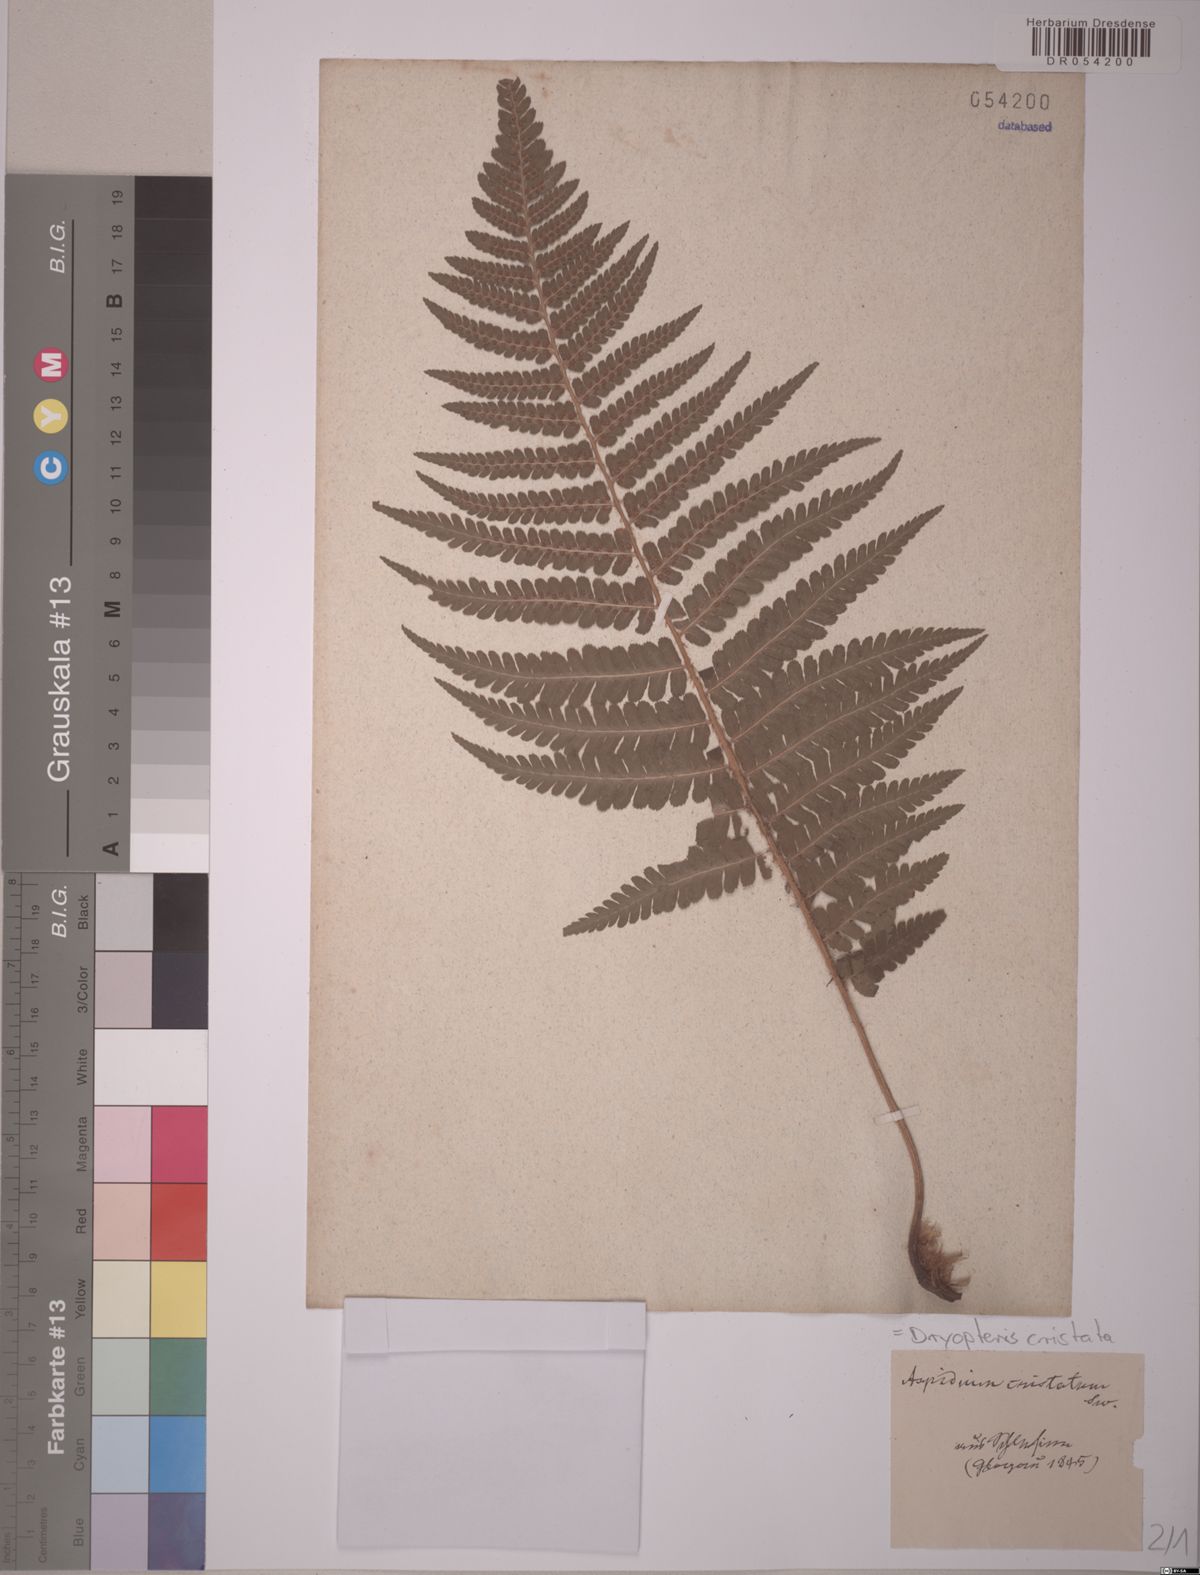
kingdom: Plantae
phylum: Tracheophyta
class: Polypodiopsida
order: Polypodiales
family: Dryopteridaceae
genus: Dryopteris
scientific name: Dryopteris cristata
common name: Crested wood fern
